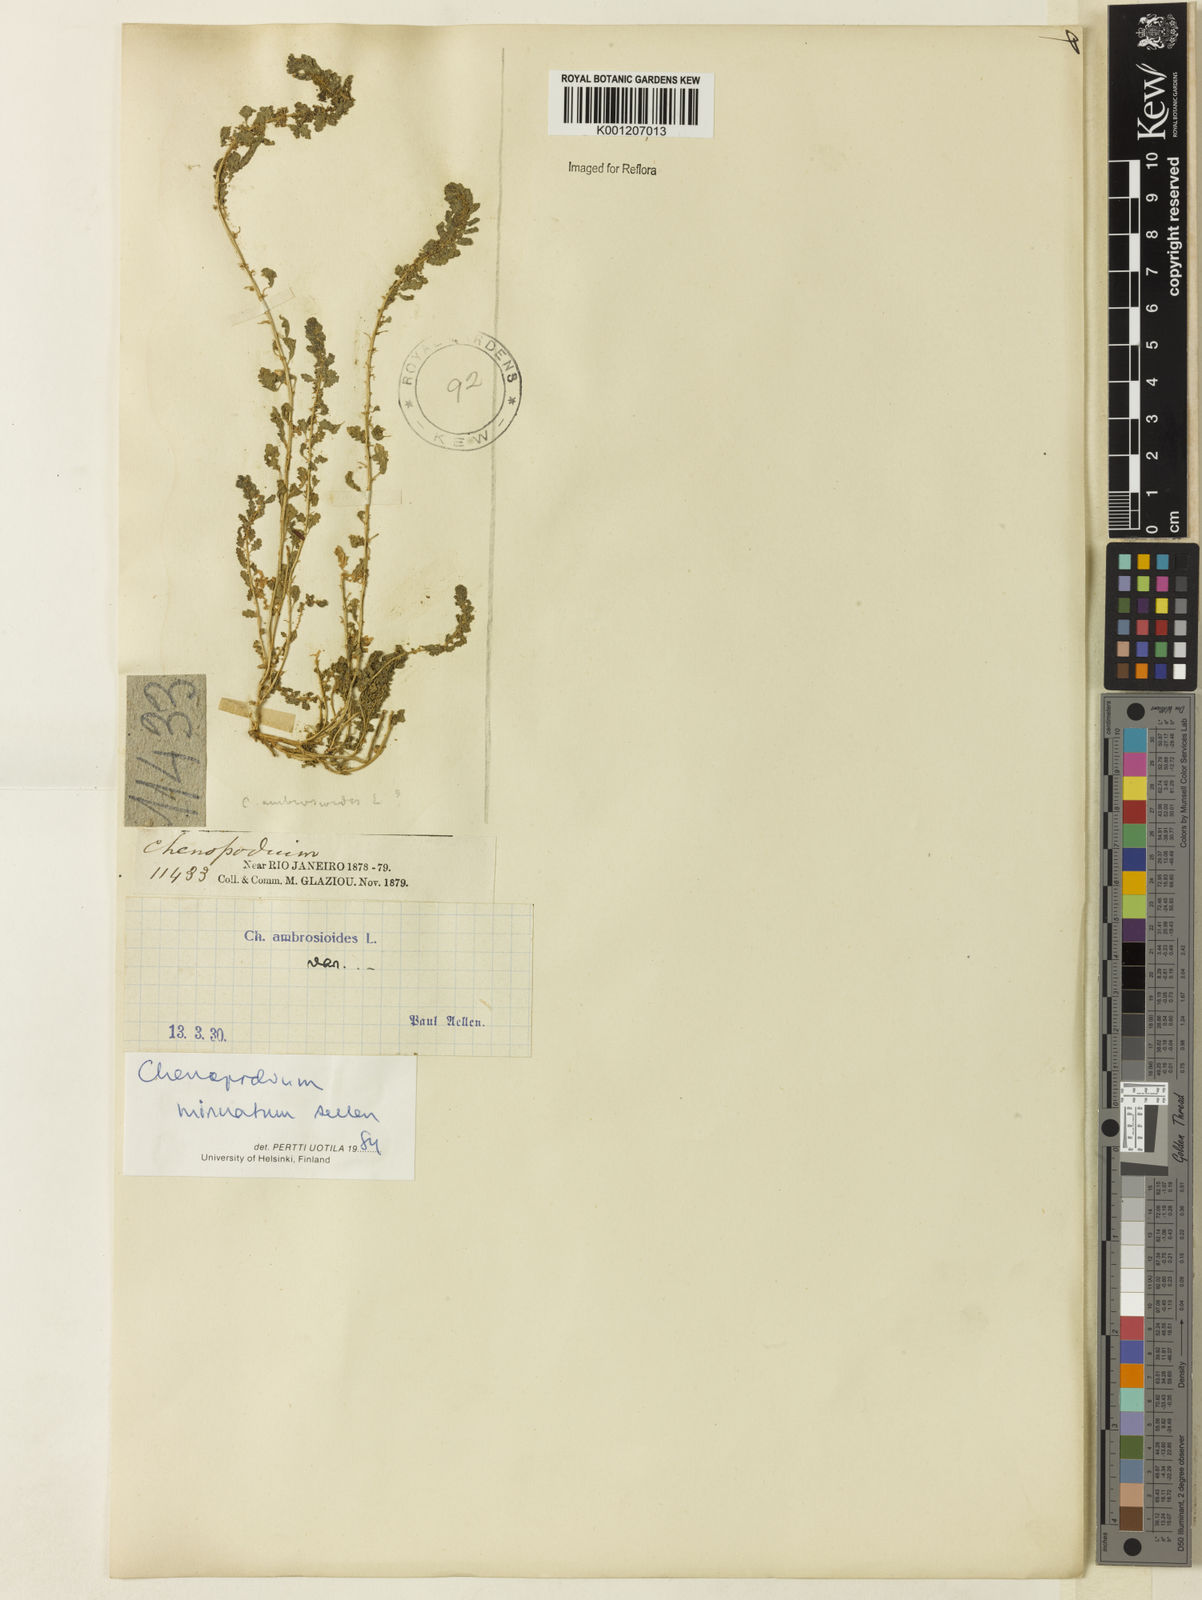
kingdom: Plantae
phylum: Tracheophyta
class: Magnoliopsida
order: Caryophyllales
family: Amaranthaceae
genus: Dysphania
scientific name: Dysphania minuata
